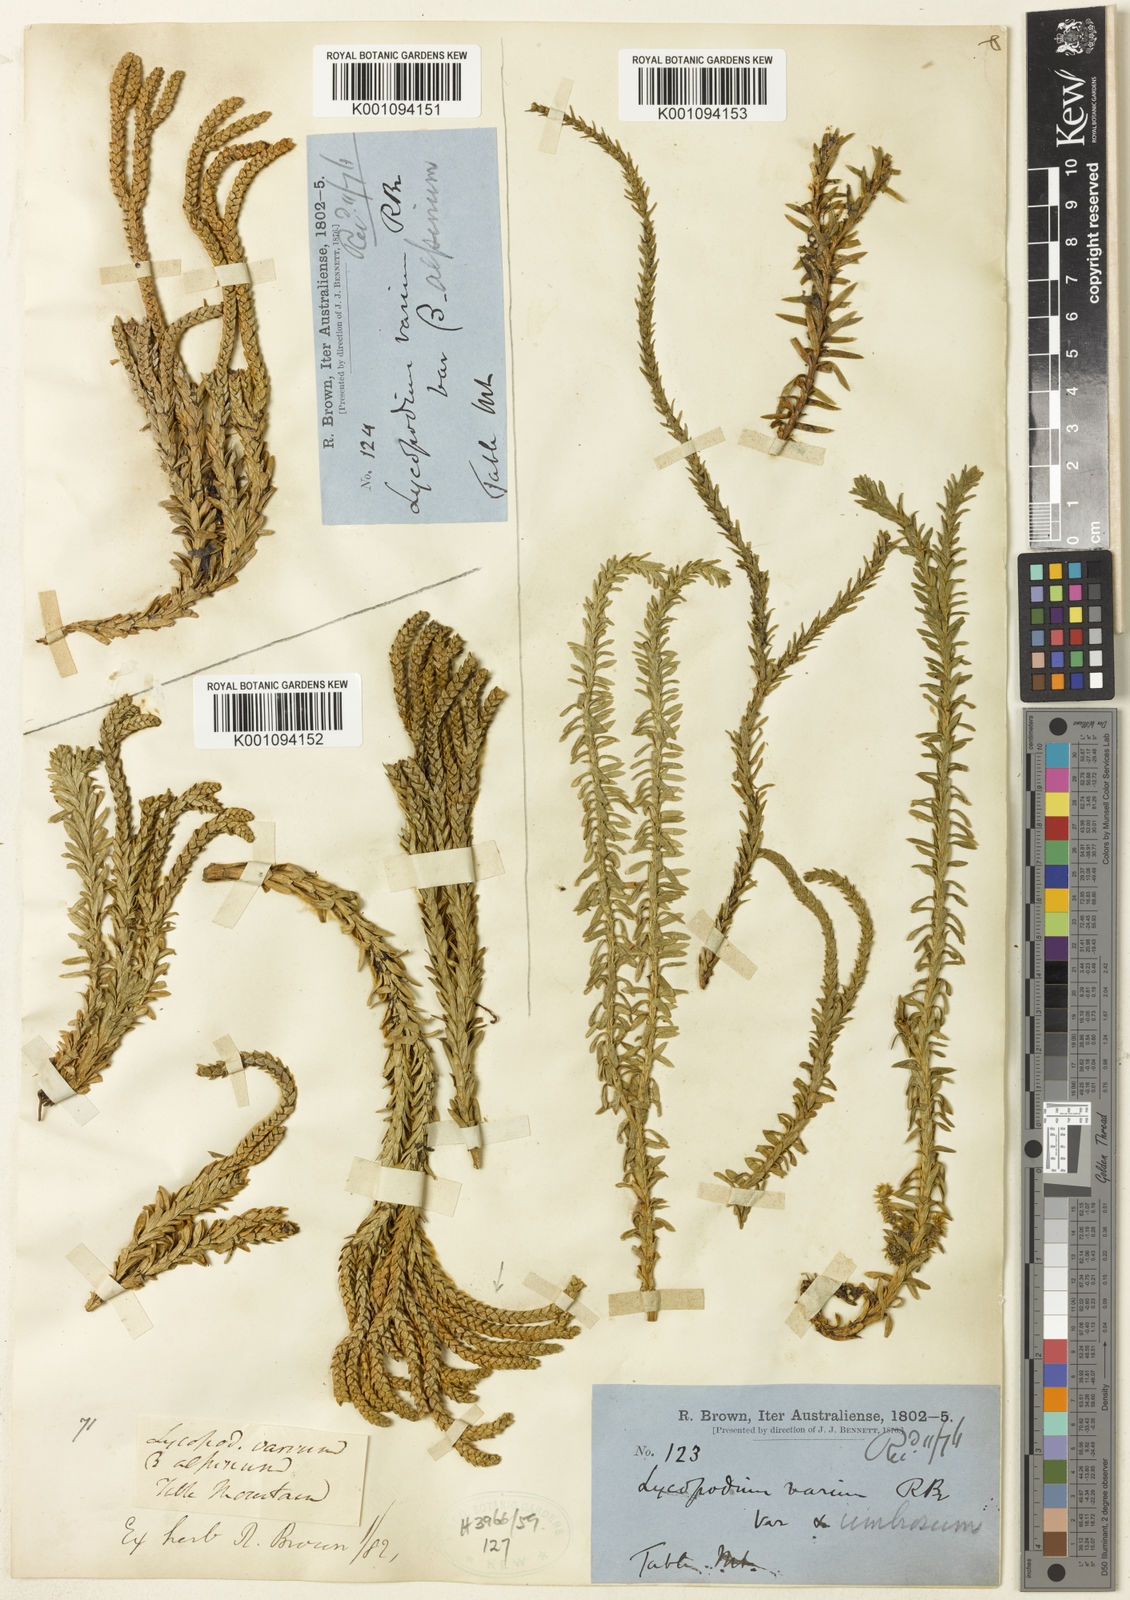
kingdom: Plantae
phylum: Tracheophyta
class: Lycopodiopsida
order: Lycopodiales
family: Lycopodiaceae
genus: Phlegmariurus
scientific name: Phlegmariurus myrtifolius
